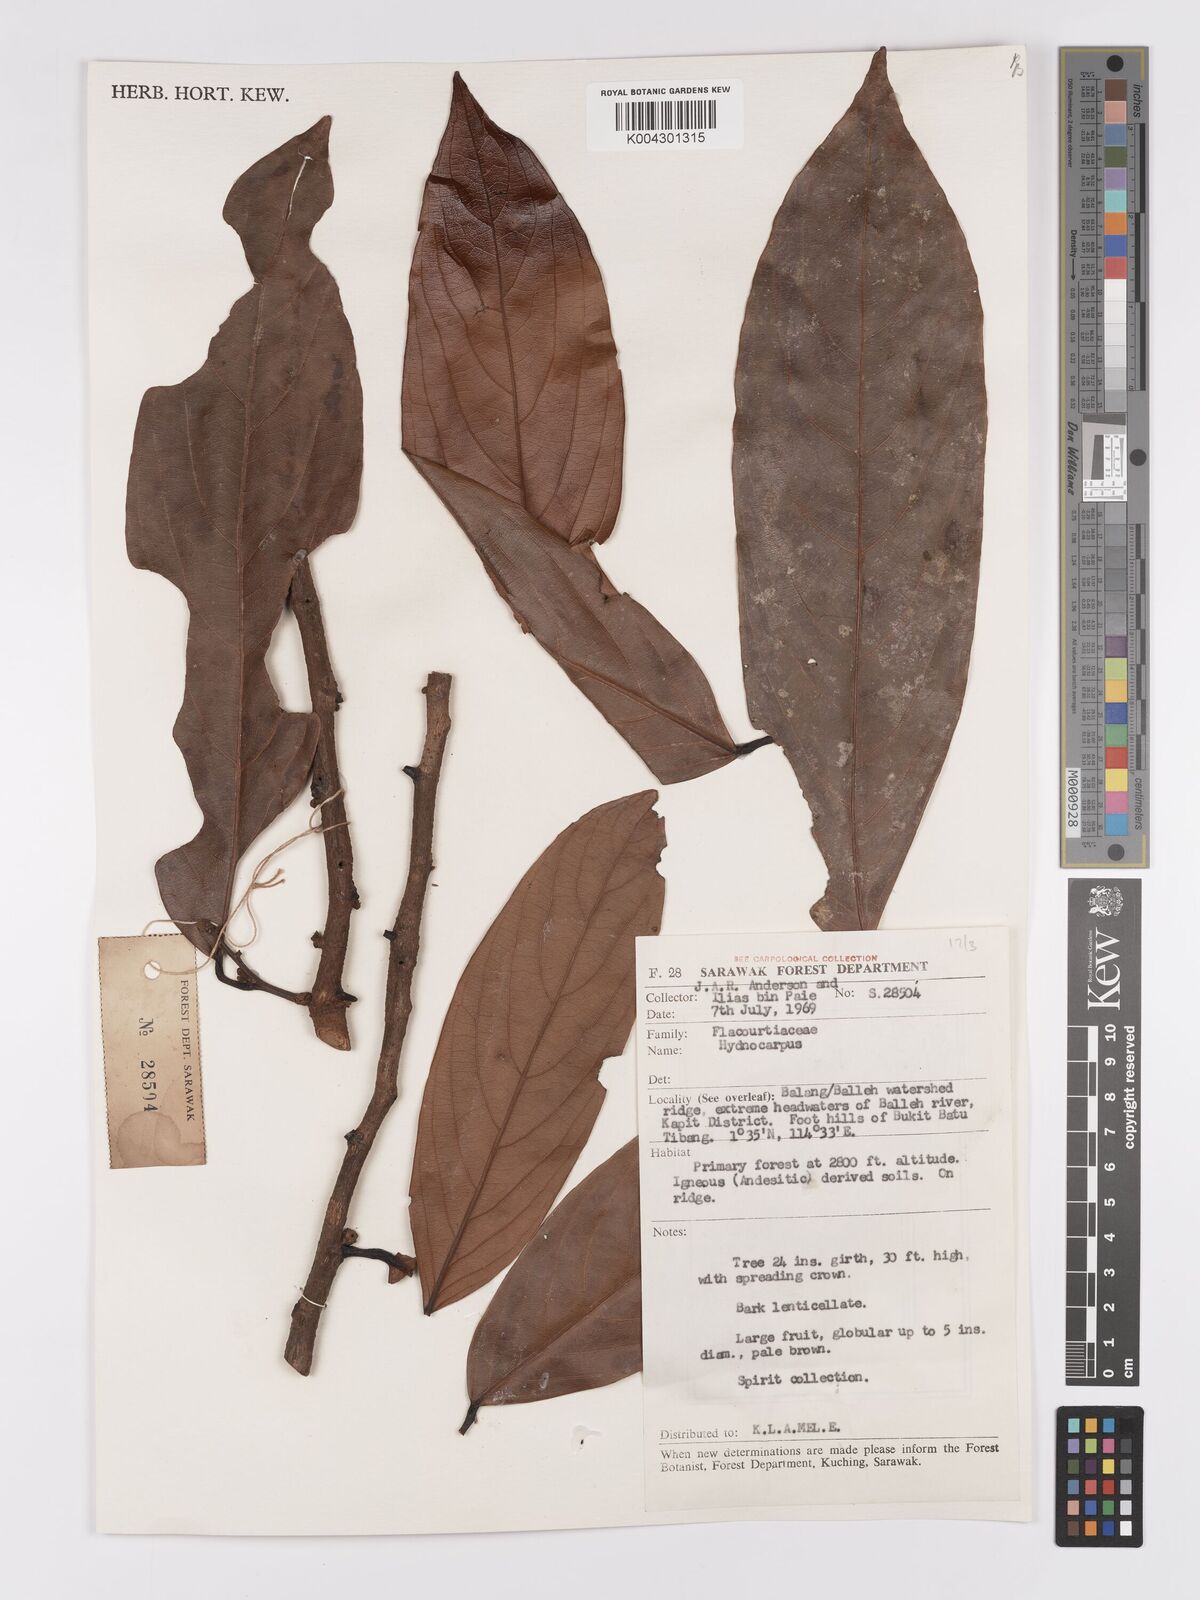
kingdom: Plantae
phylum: Tracheophyta
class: Magnoliopsida
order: Malpighiales
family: Achariaceae
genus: Hydnocarpus
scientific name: Hydnocarpus
